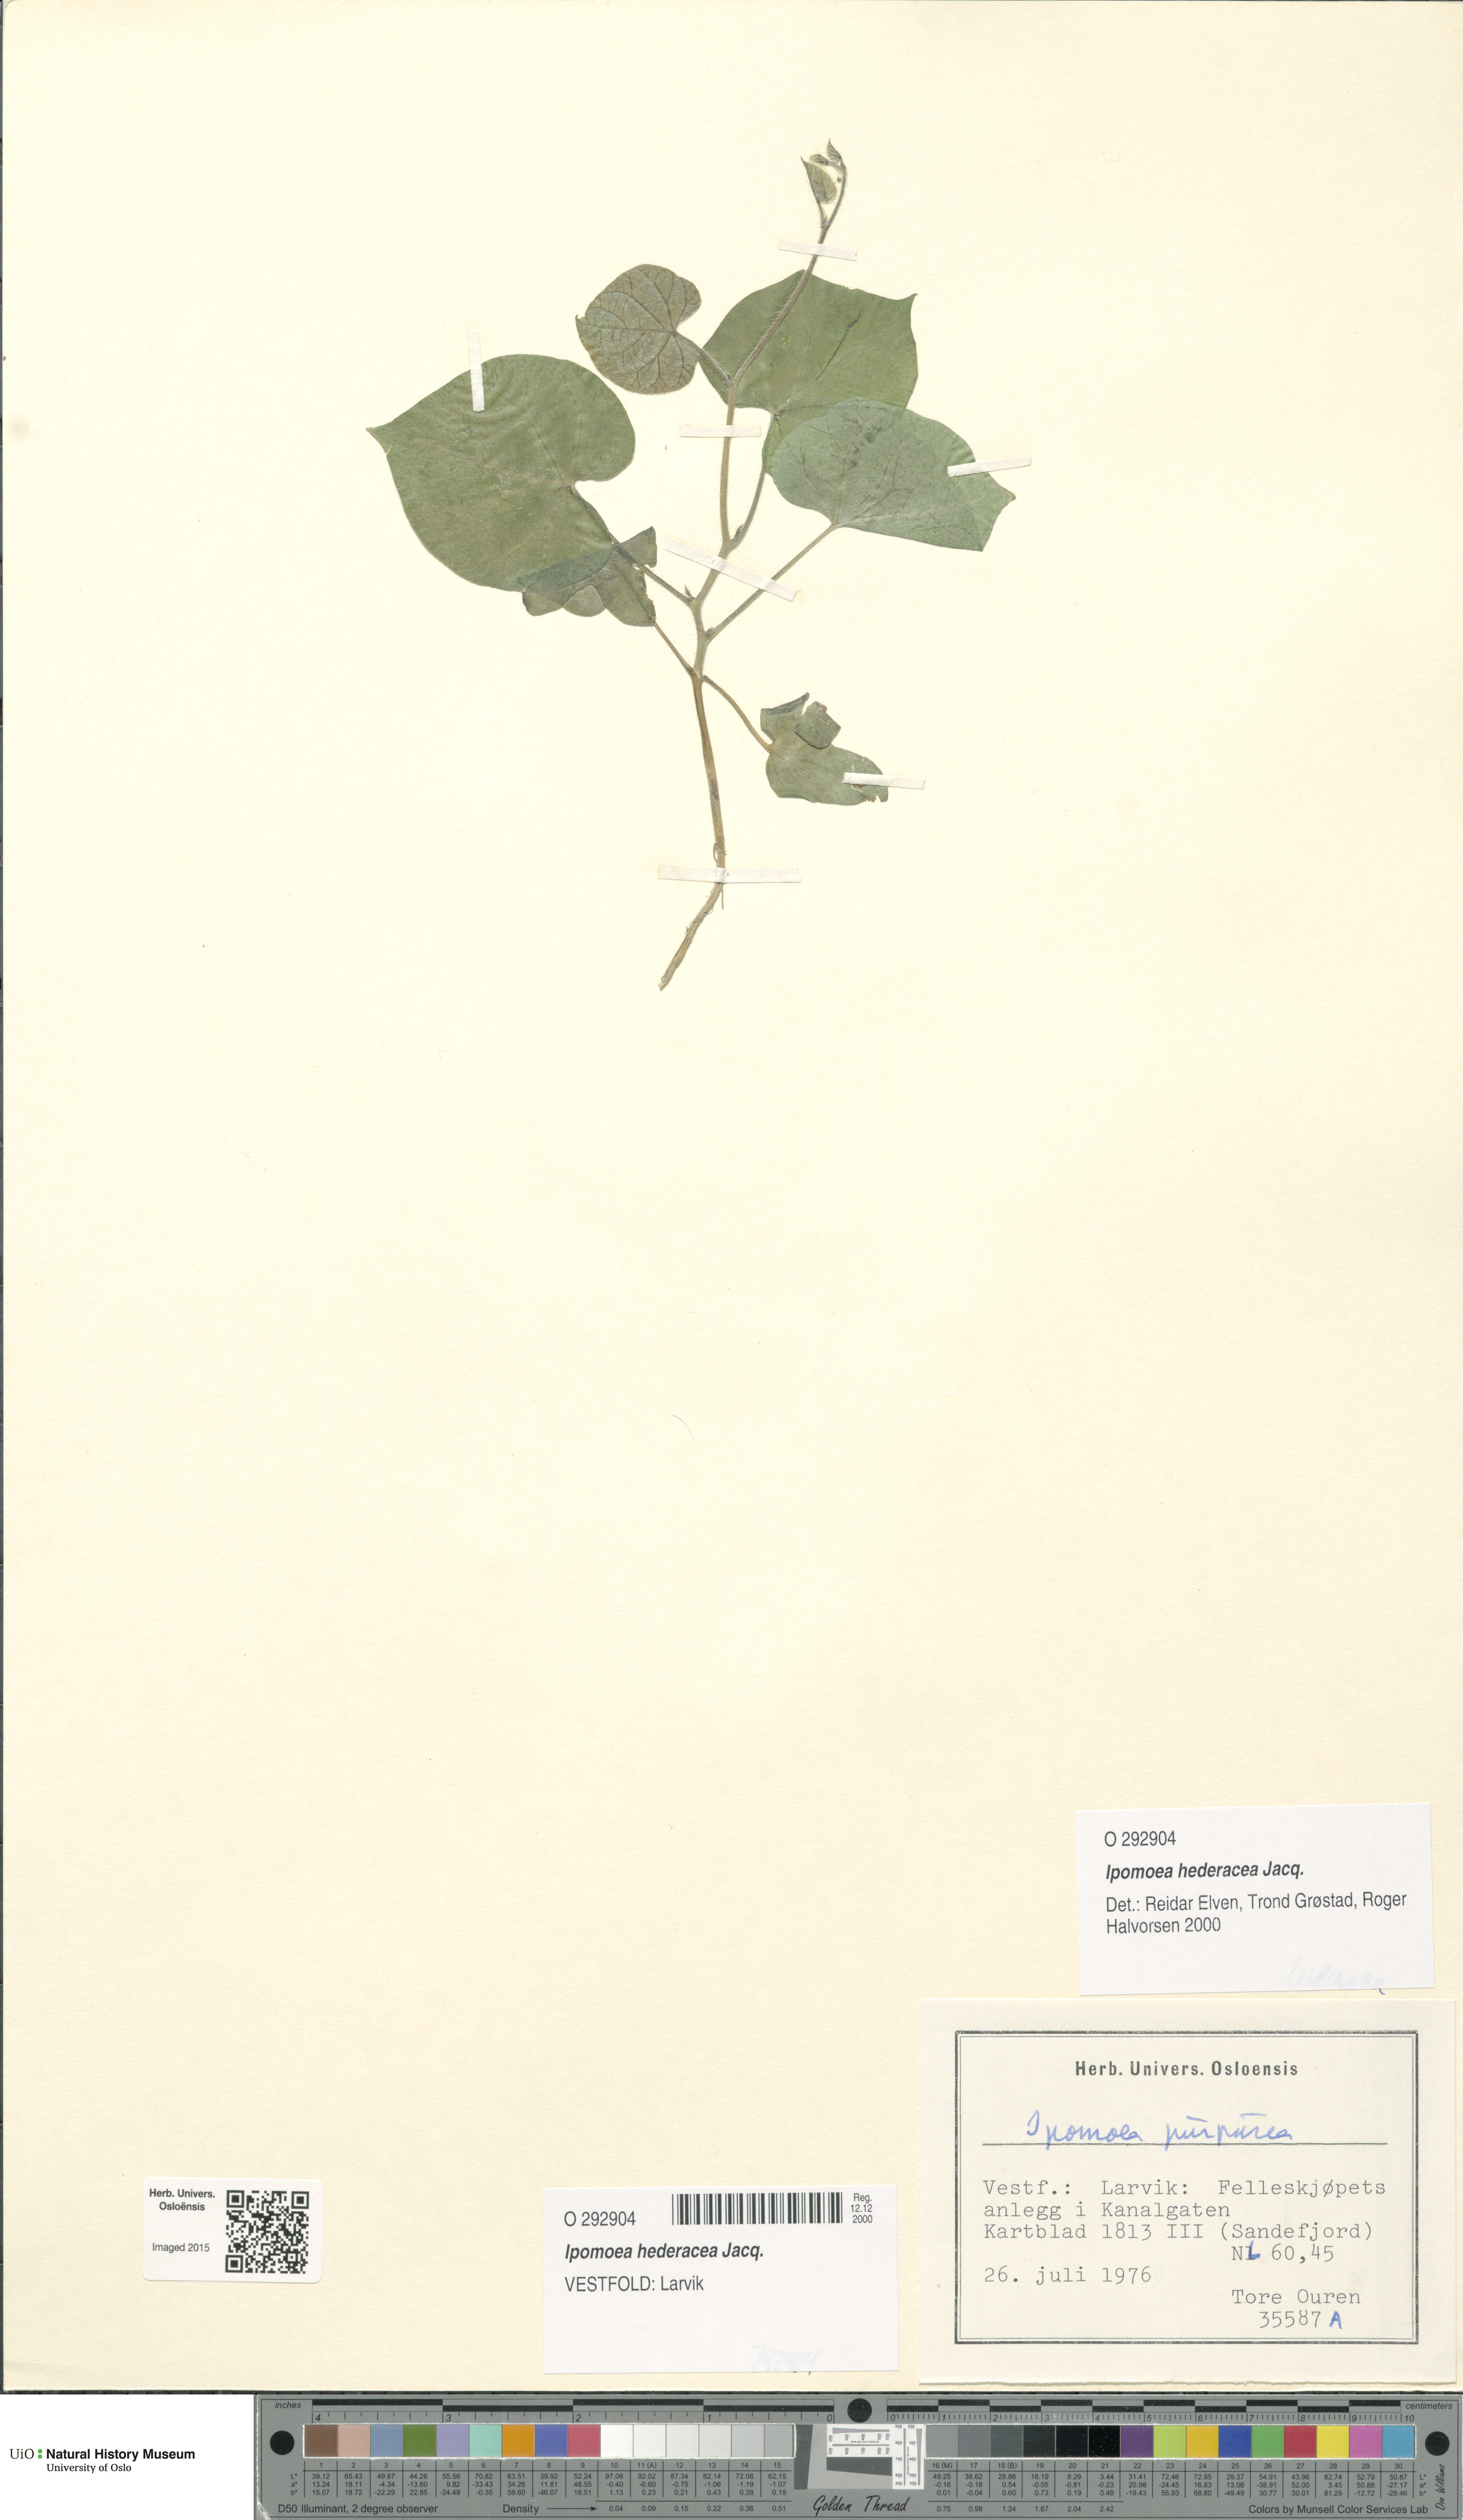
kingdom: Plantae
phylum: Tracheophyta
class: Magnoliopsida
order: Solanales
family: Convolvulaceae
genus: Ipomoea
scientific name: Ipomoea nil
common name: Japanese morning-glory
